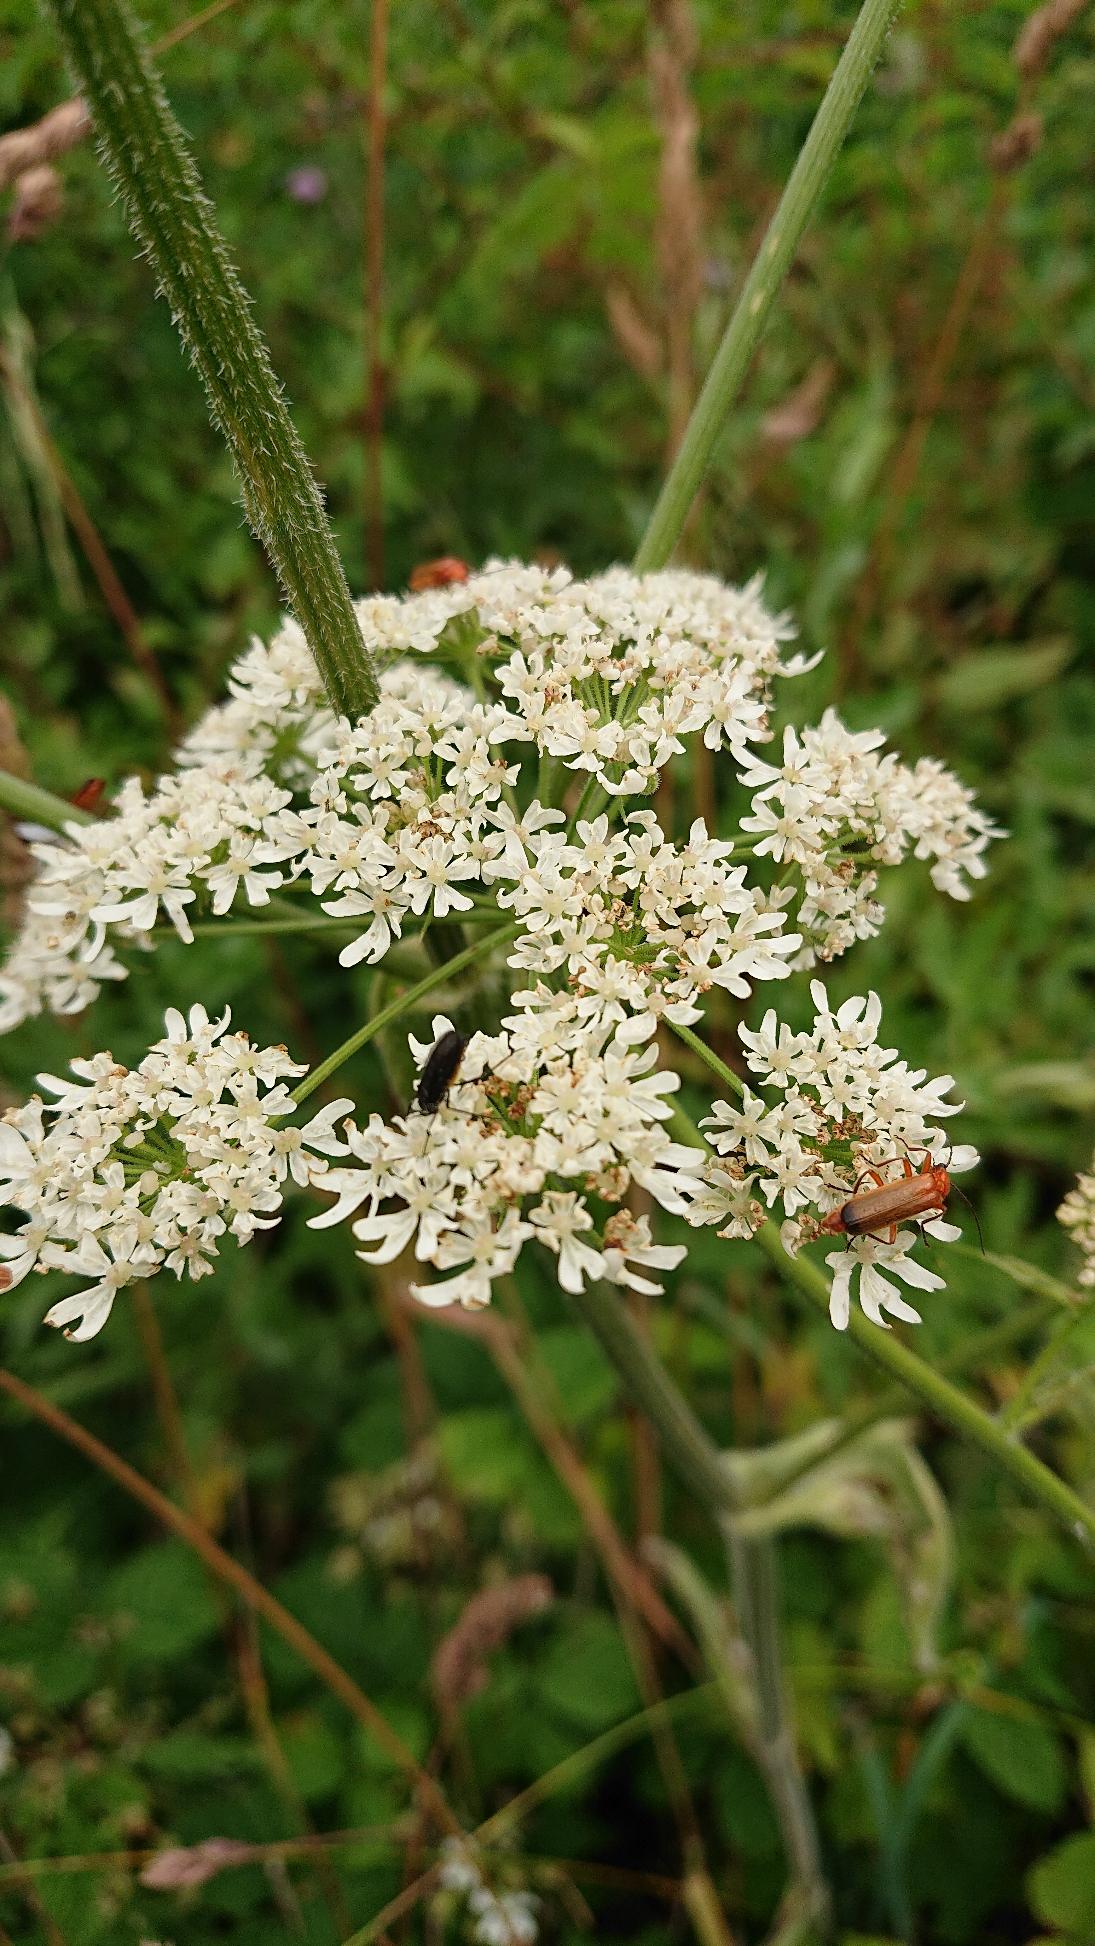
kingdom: Animalia
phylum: Arthropoda
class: Insecta
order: Coleoptera
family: Cantharidae
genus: Rhagonycha
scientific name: Rhagonycha fulva
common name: Præstebille
